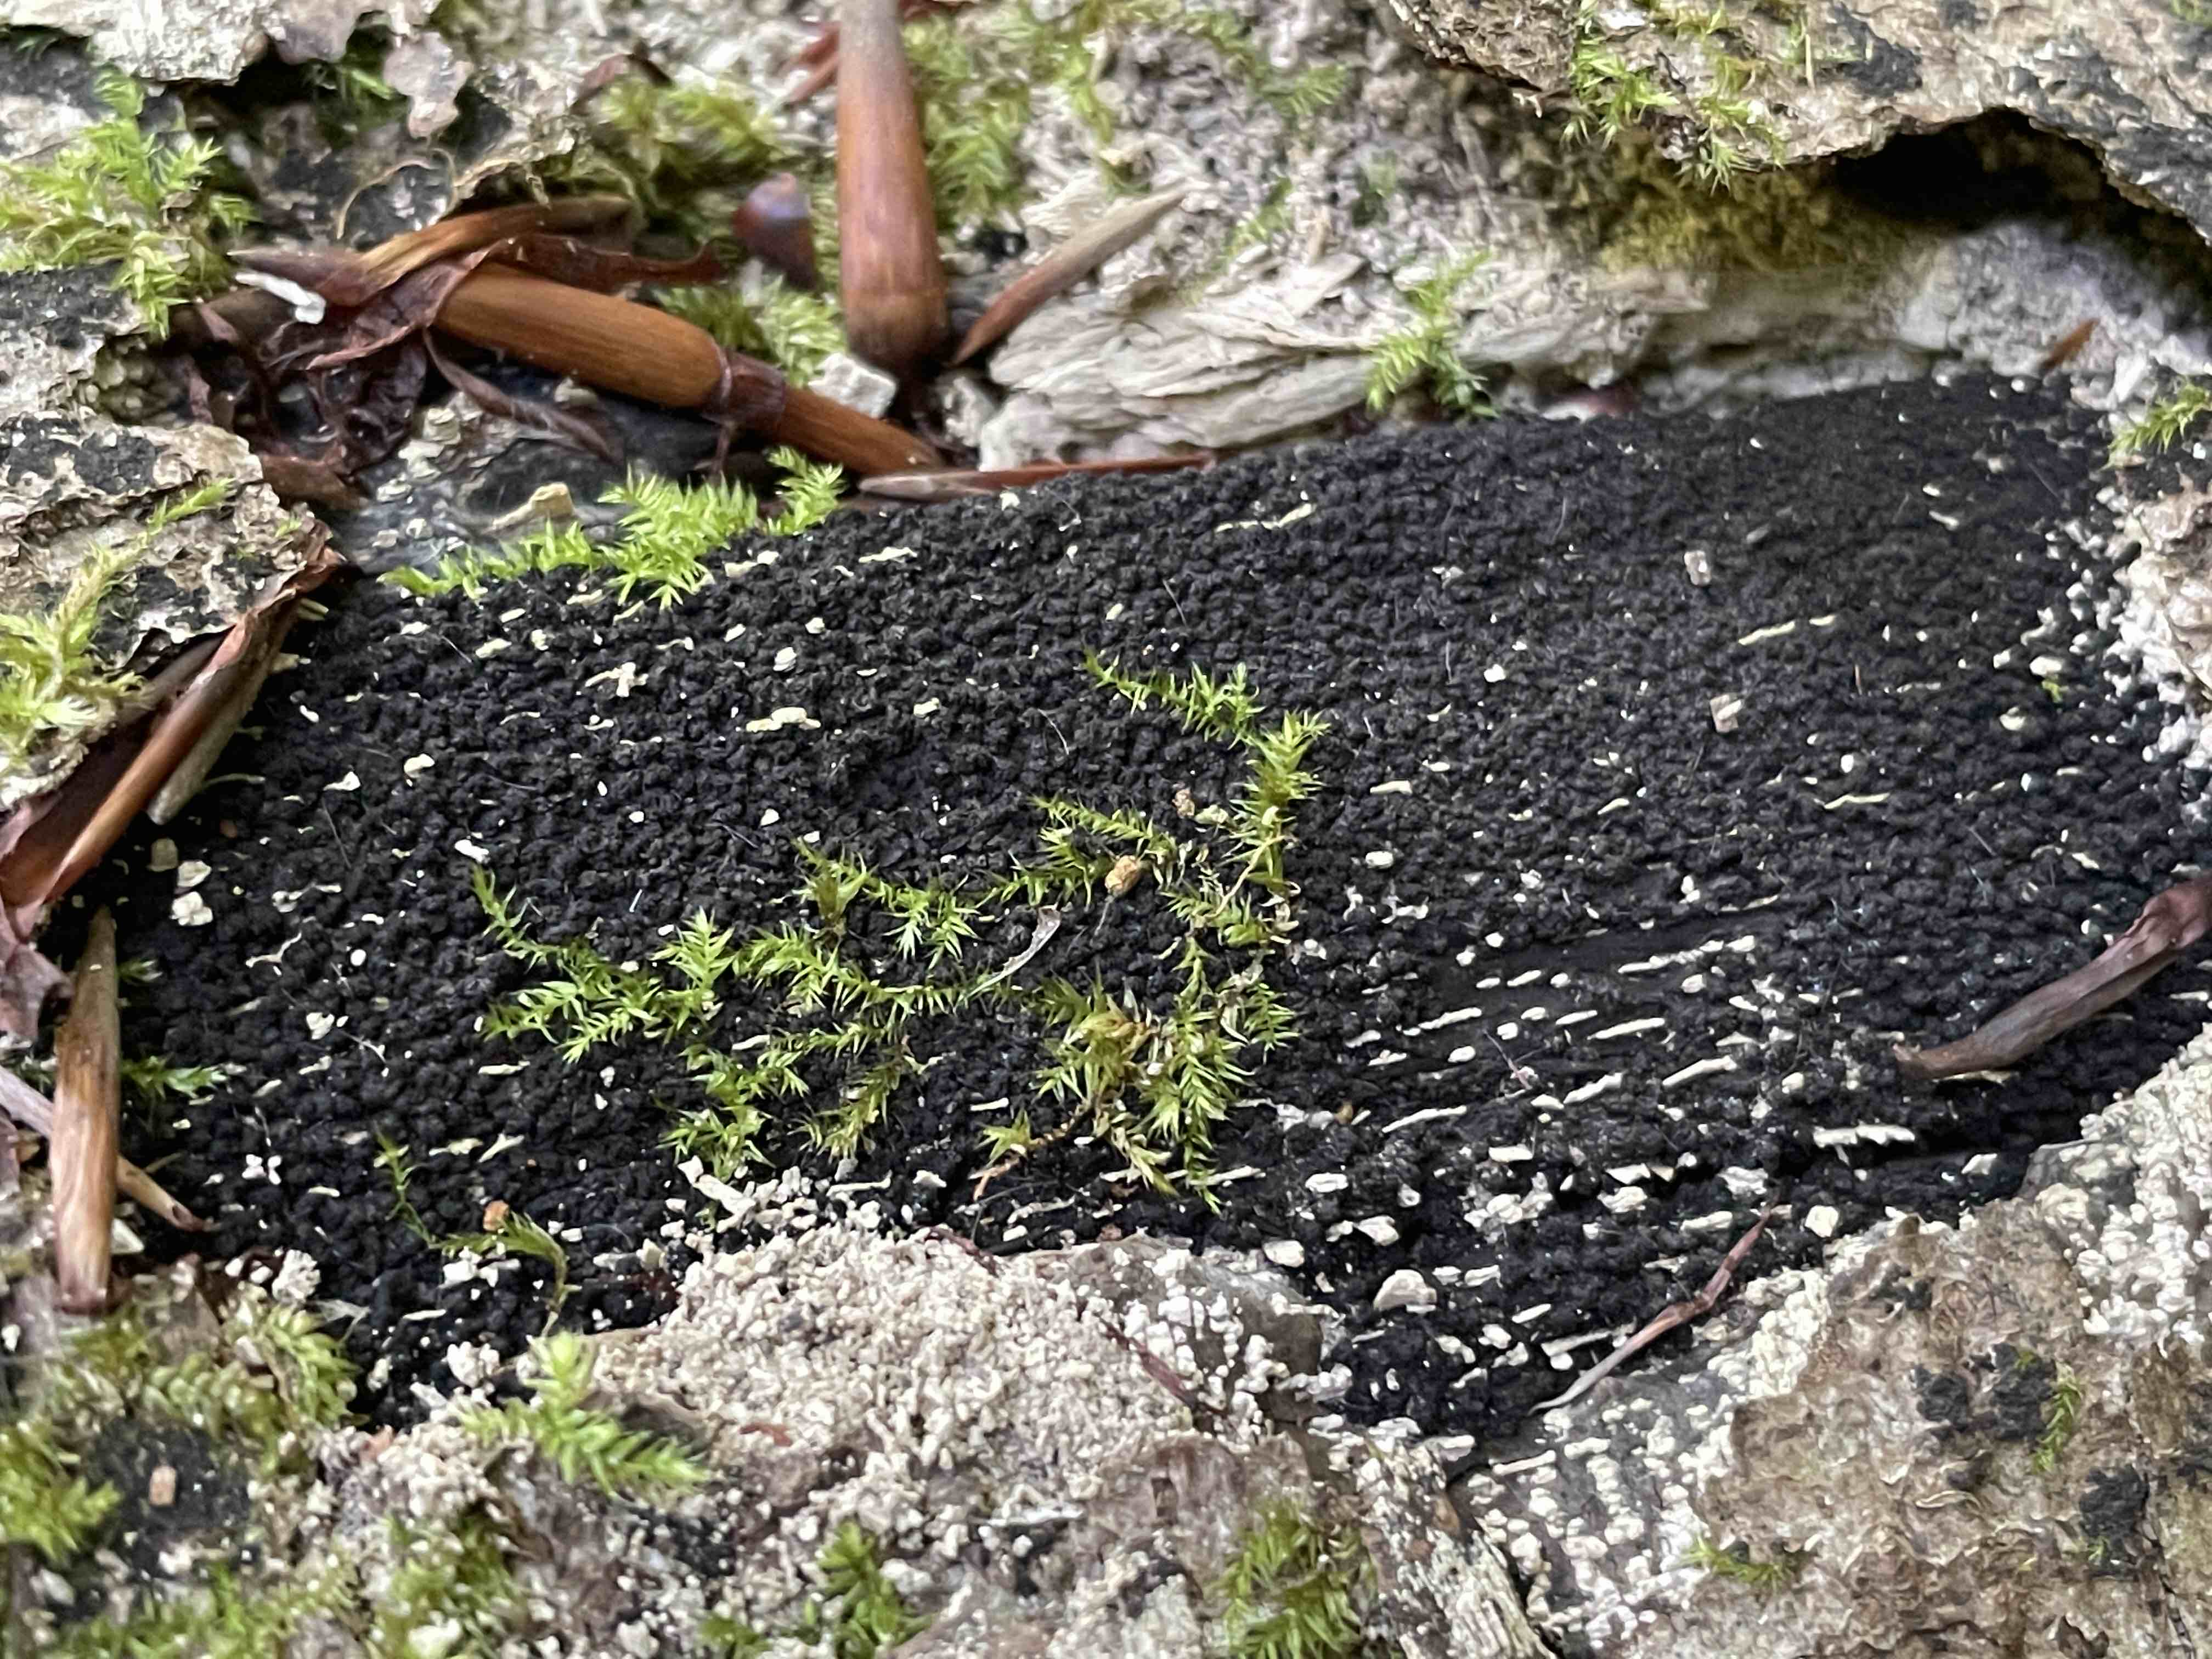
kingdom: Fungi
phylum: Ascomycota
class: Sordariomycetes
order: Xylariales
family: Diatrypaceae
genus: Eutypa
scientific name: Eutypa spinosa
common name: grov kulskorpe
